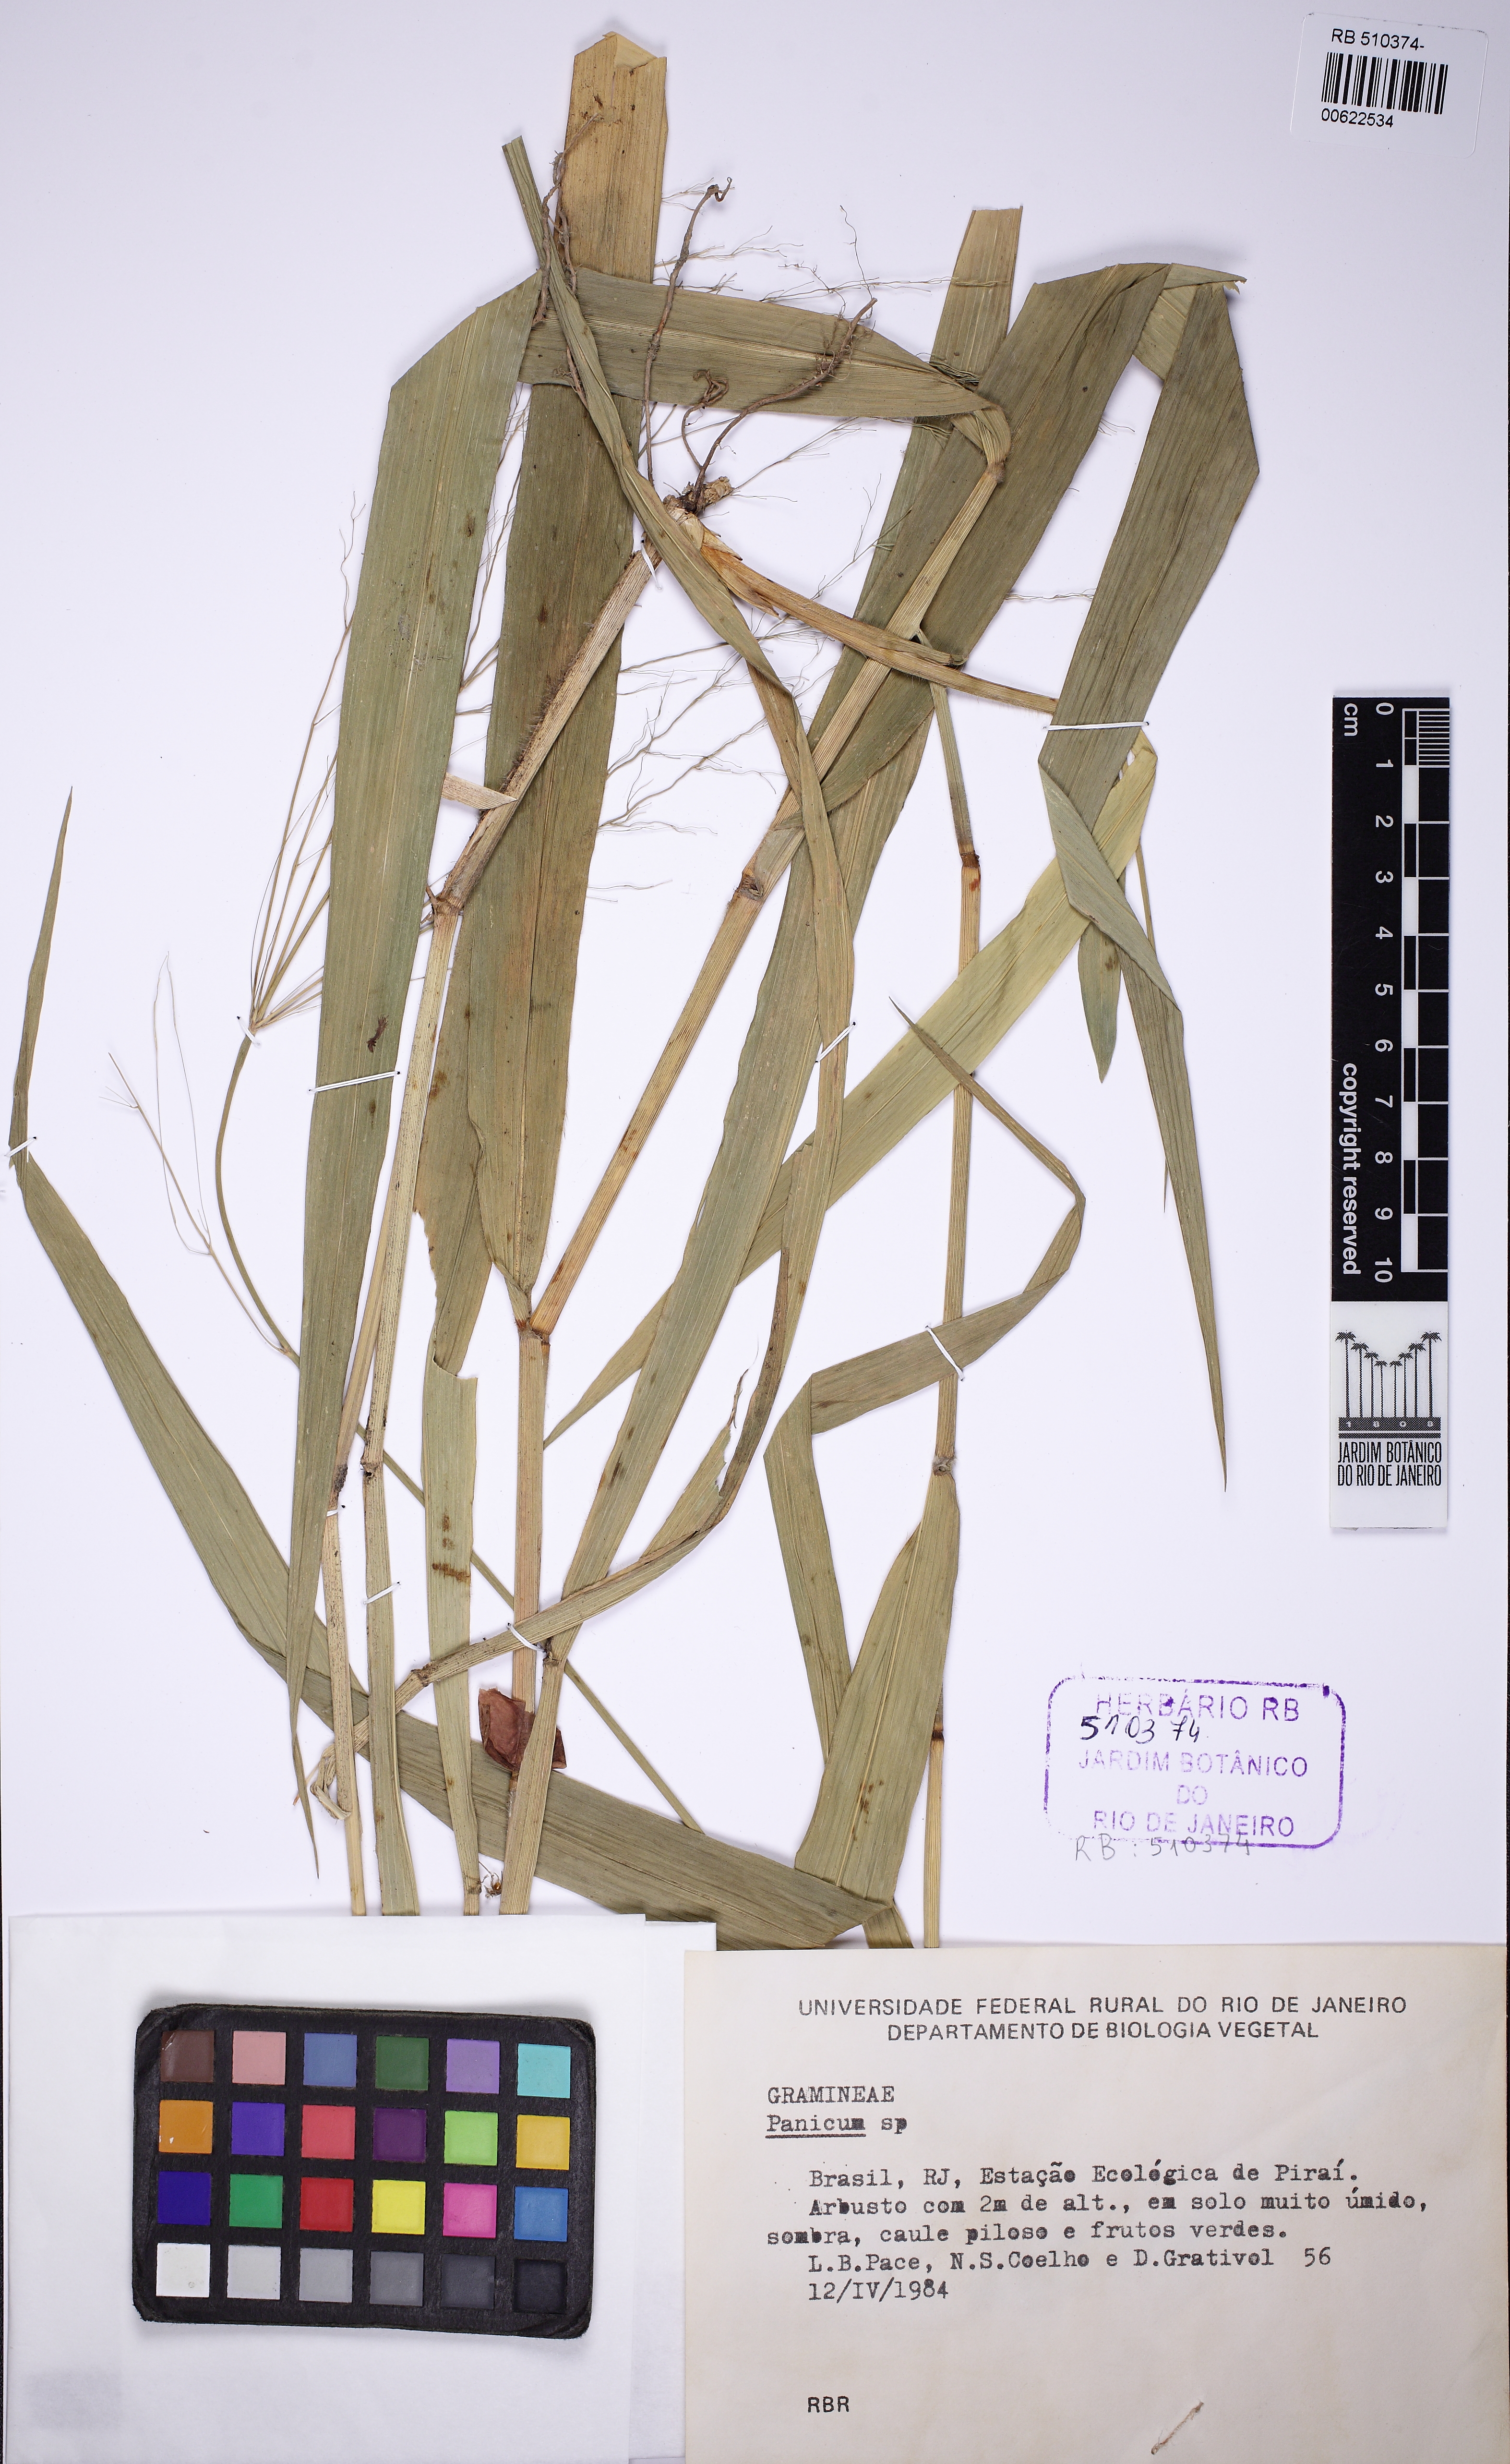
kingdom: Plantae
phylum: Tracheophyta
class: Liliopsida
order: Poales
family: Poaceae
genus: Homolepis
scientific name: Homolepis glutinosa
